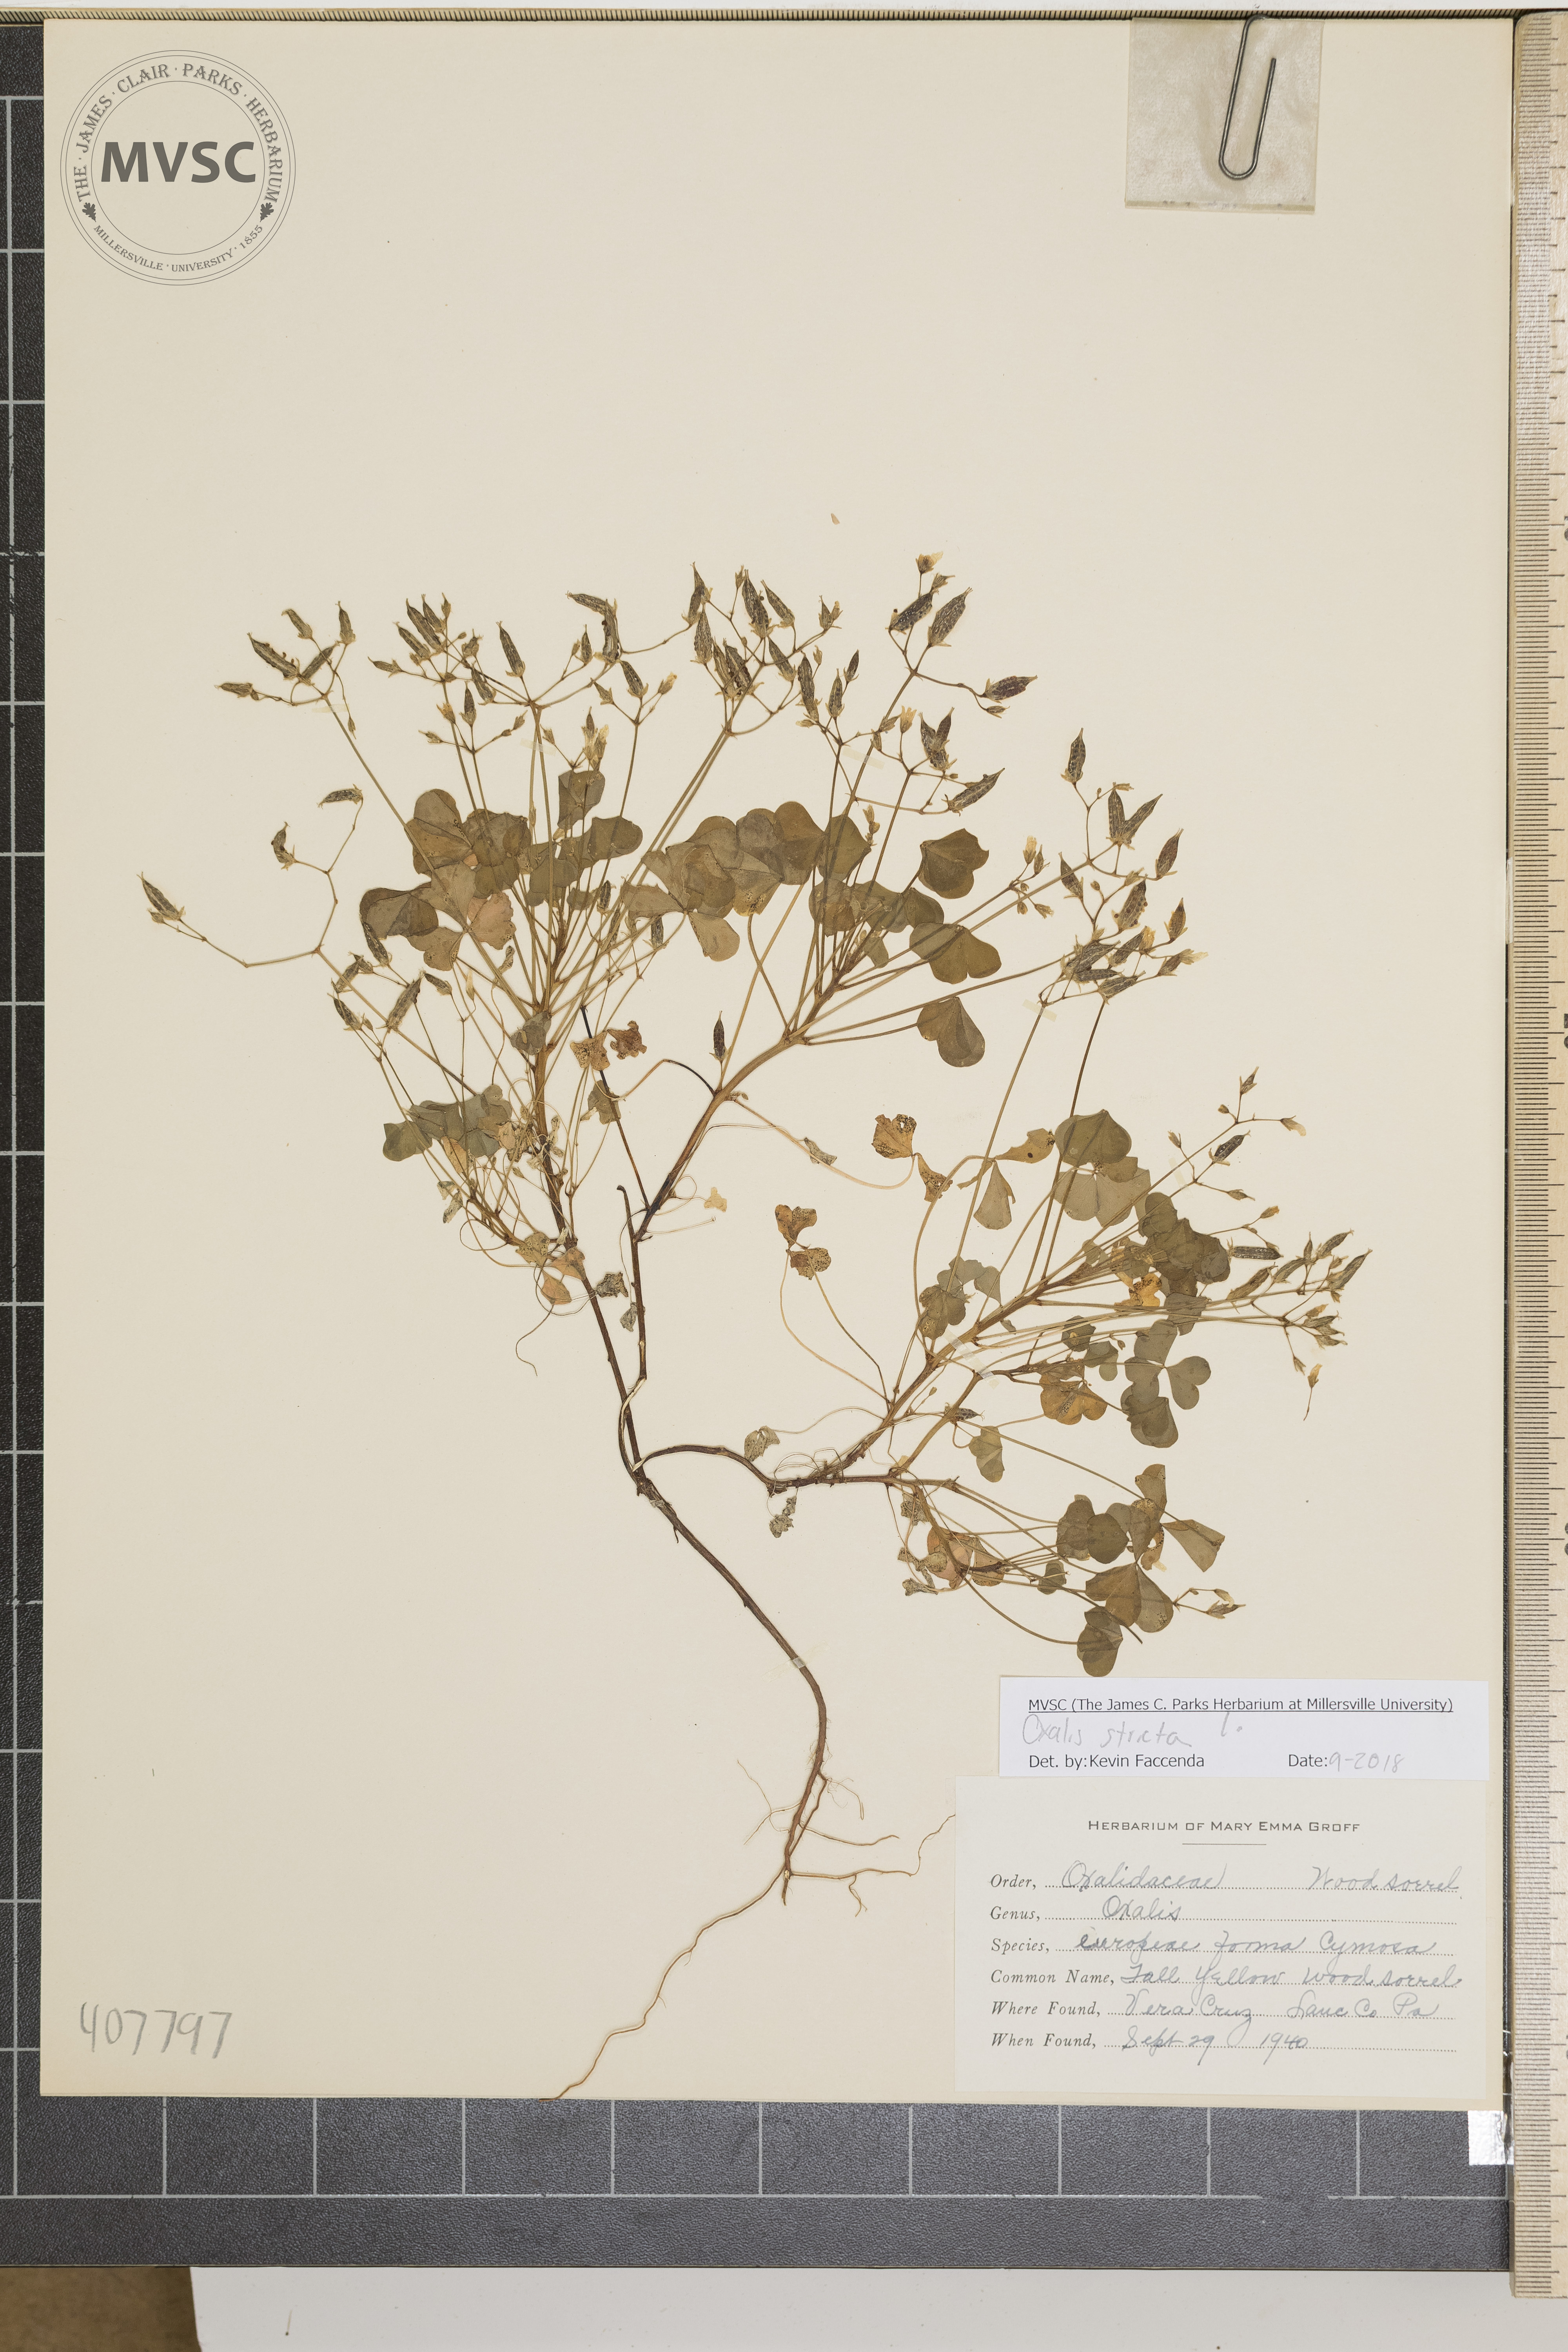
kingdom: Plantae
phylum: Tracheophyta
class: Magnoliopsida
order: Oxalidales
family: Oxalidaceae
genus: Oxalis
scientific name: Oxalis stricta
